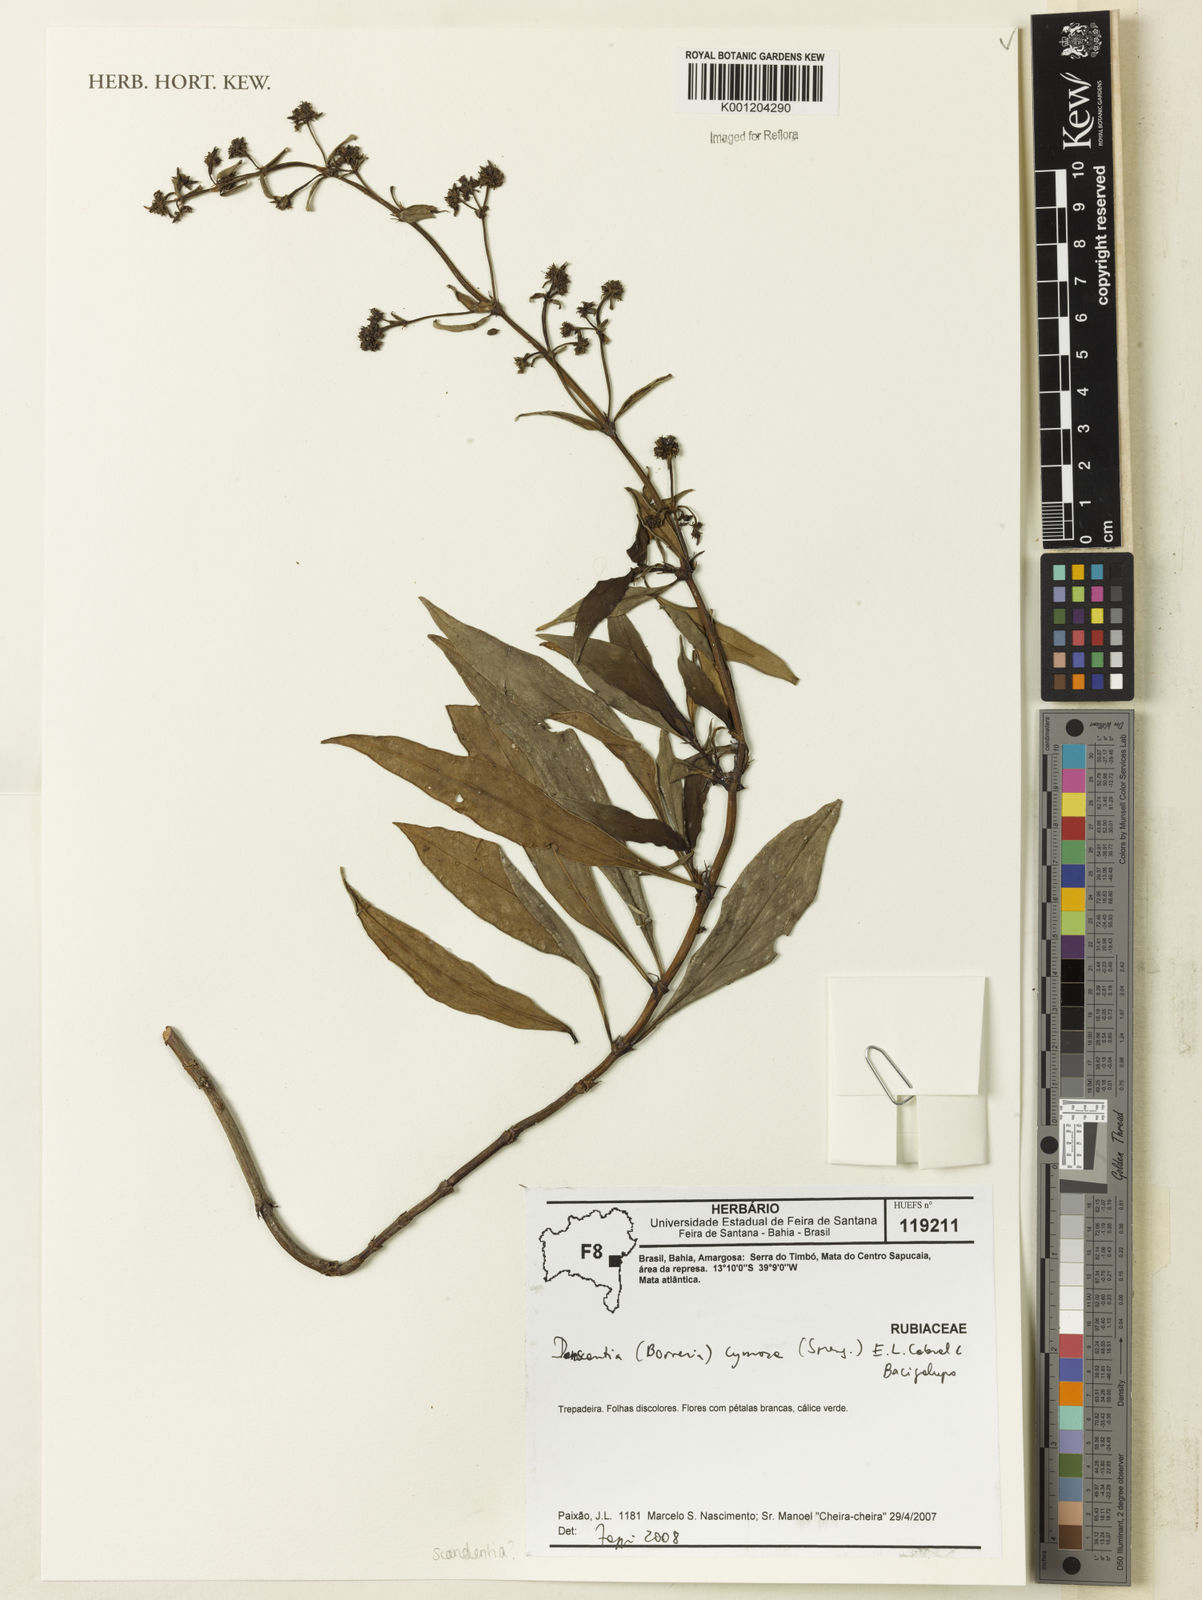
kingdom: Plantae
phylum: Tracheophyta
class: Magnoliopsida
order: Gentianales
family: Rubiaceae
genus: Denscantia
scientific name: Denscantia monodon
